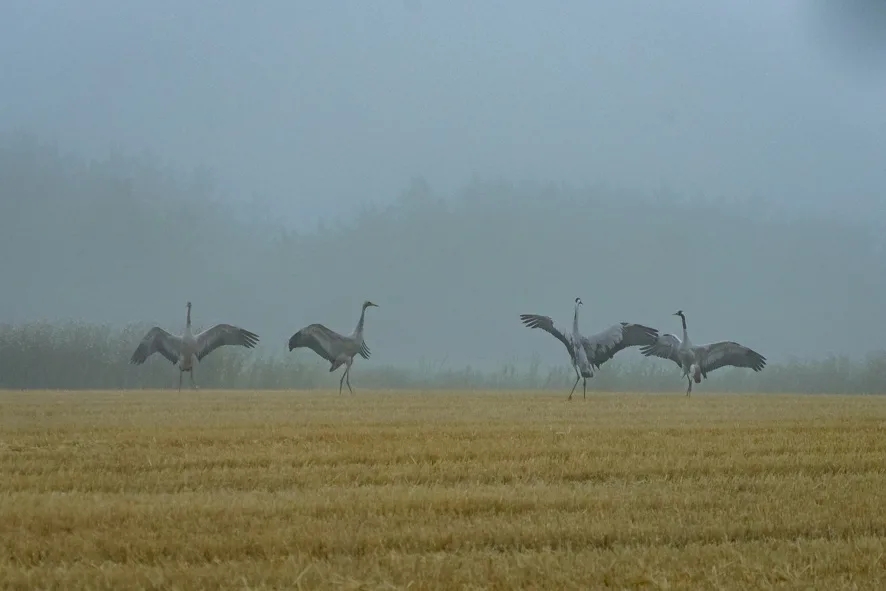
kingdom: Animalia
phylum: Chordata
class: Aves
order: Gruiformes
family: Gruidae
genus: Grus
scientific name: Grus grus
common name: Trane
